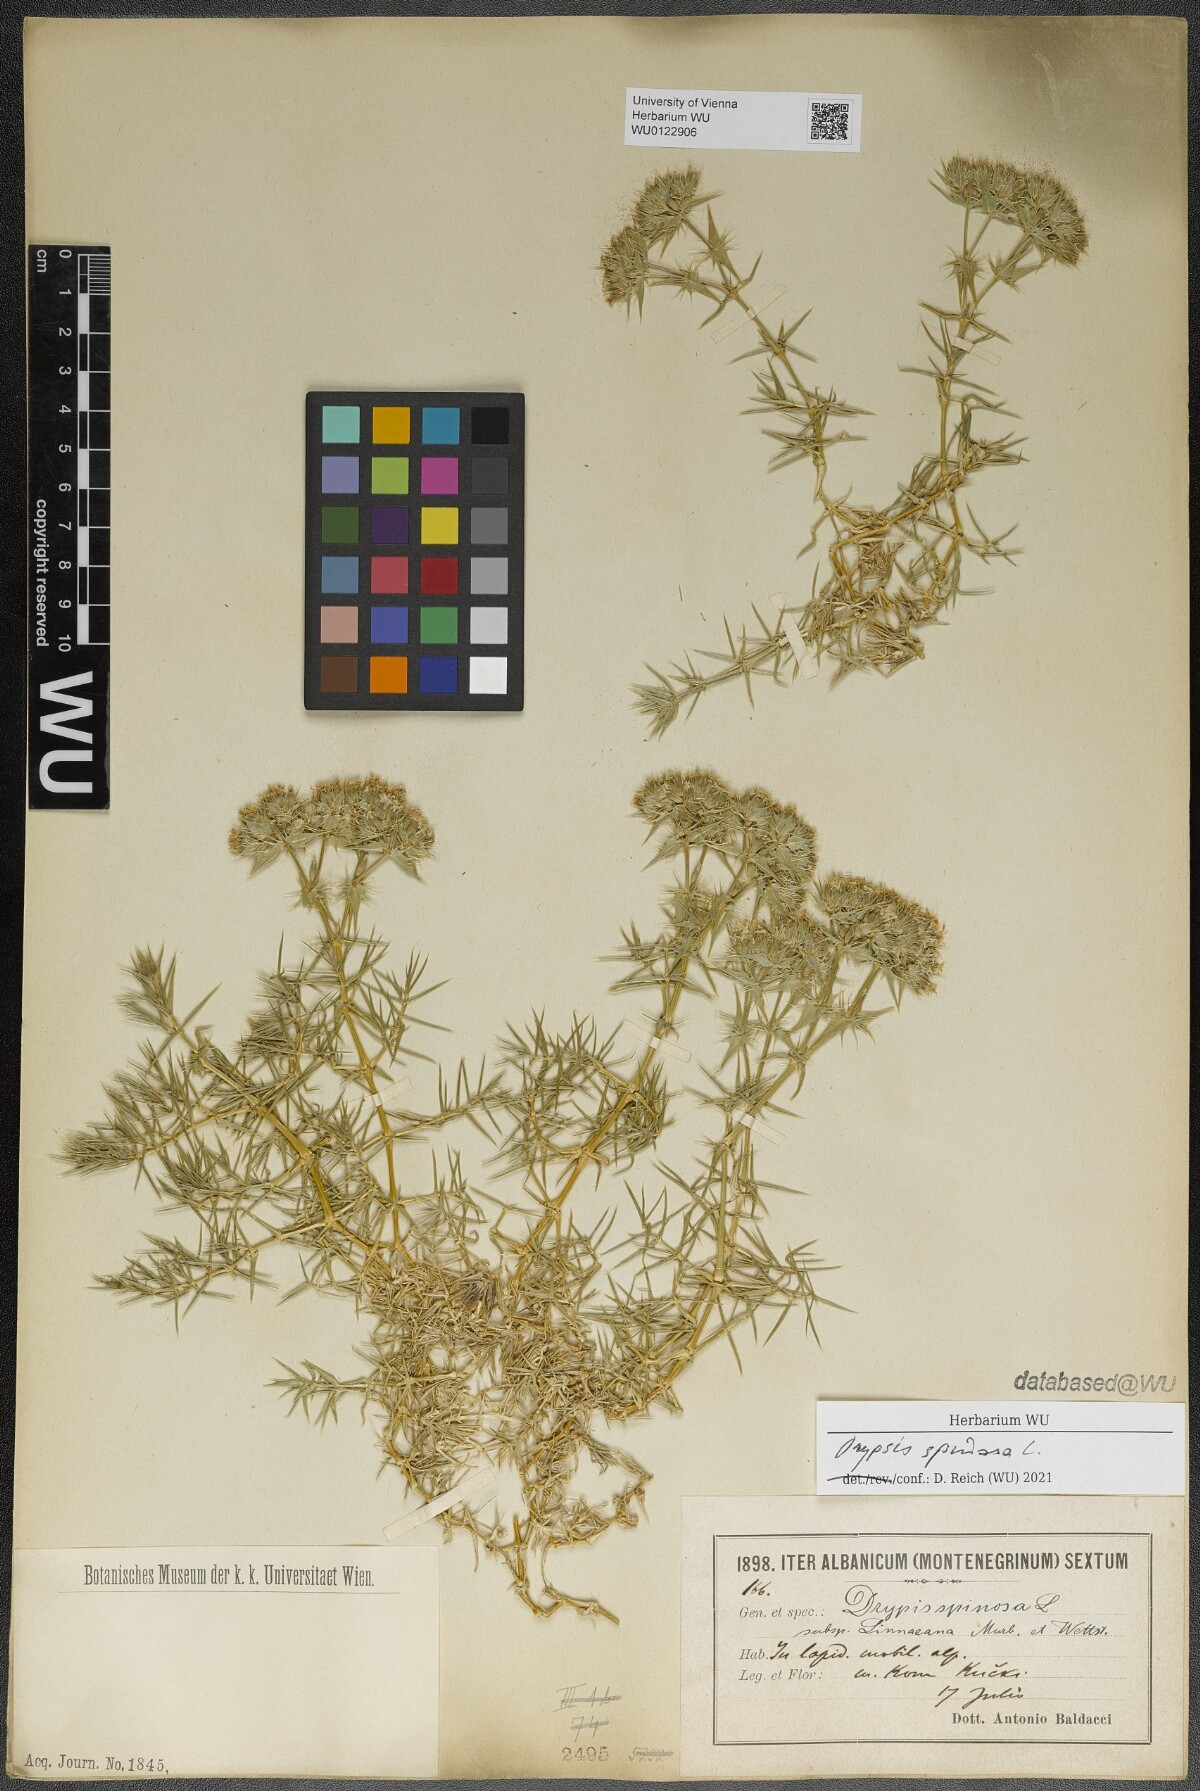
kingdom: Plantae
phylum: Tracheophyta
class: Magnoliopsida
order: Caryophyllales
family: Caryophyllaceae
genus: Drypis
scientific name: Drypis spinosa
